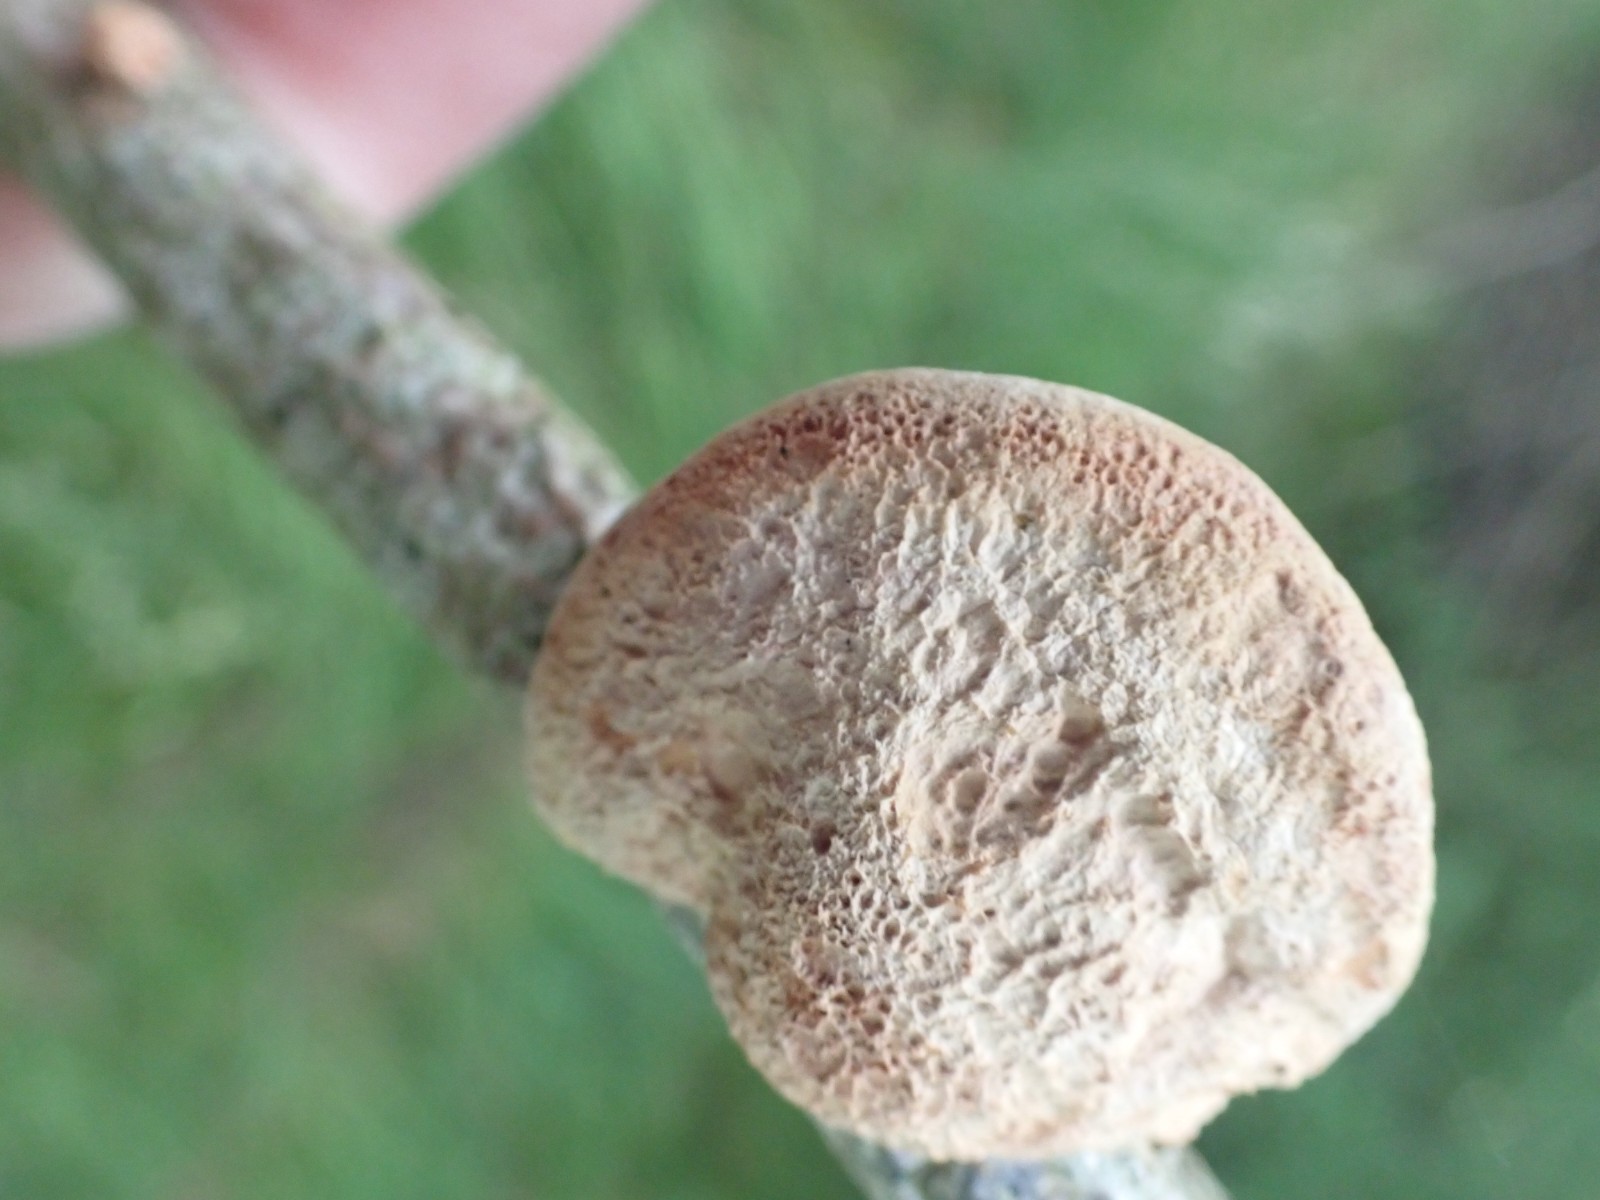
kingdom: Fungi
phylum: Basidiomycota
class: Agaricomycetes
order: Polyporales
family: Phanerochaetaceae
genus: Hapalopilus
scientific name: Hapalopilus rutilans
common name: rødlig okkerporesvamp
